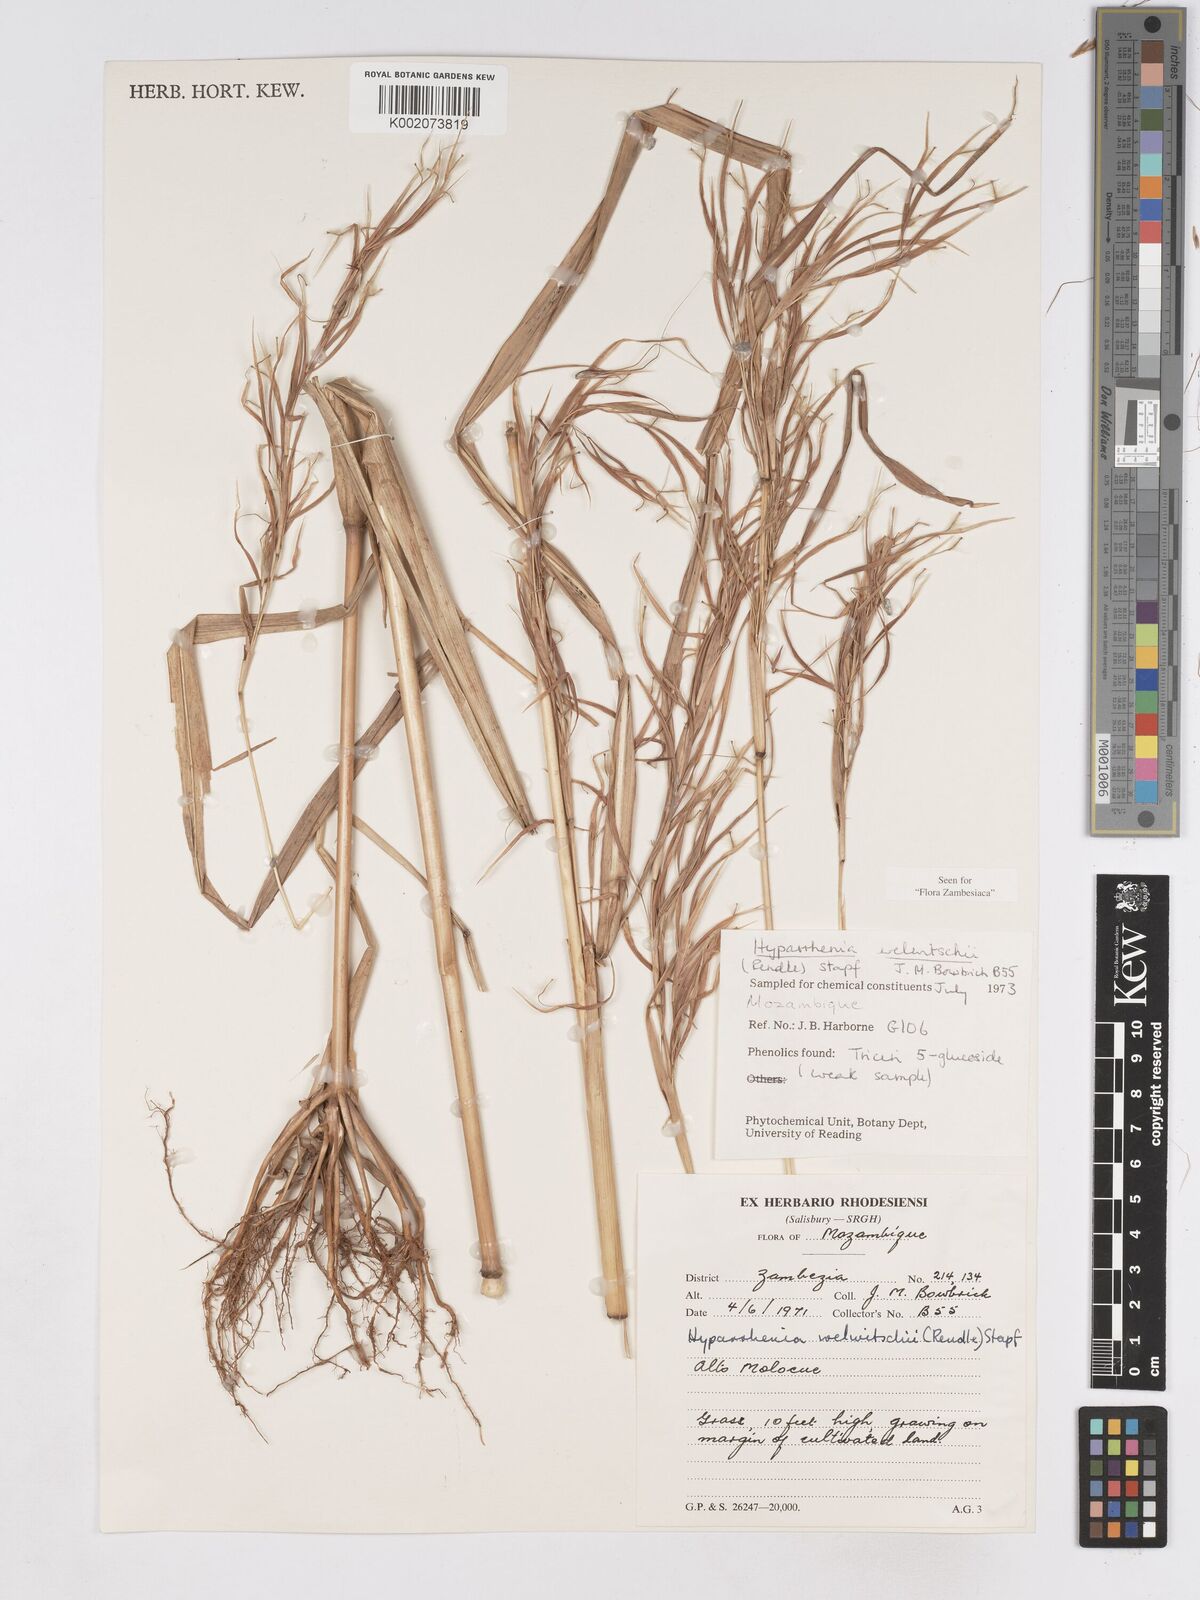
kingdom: Plantae
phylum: Tracheophyta
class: Liliopsida
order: Poales
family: Poaceae
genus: Hyparrhenia
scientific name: Hyparrhenia welwitschii
